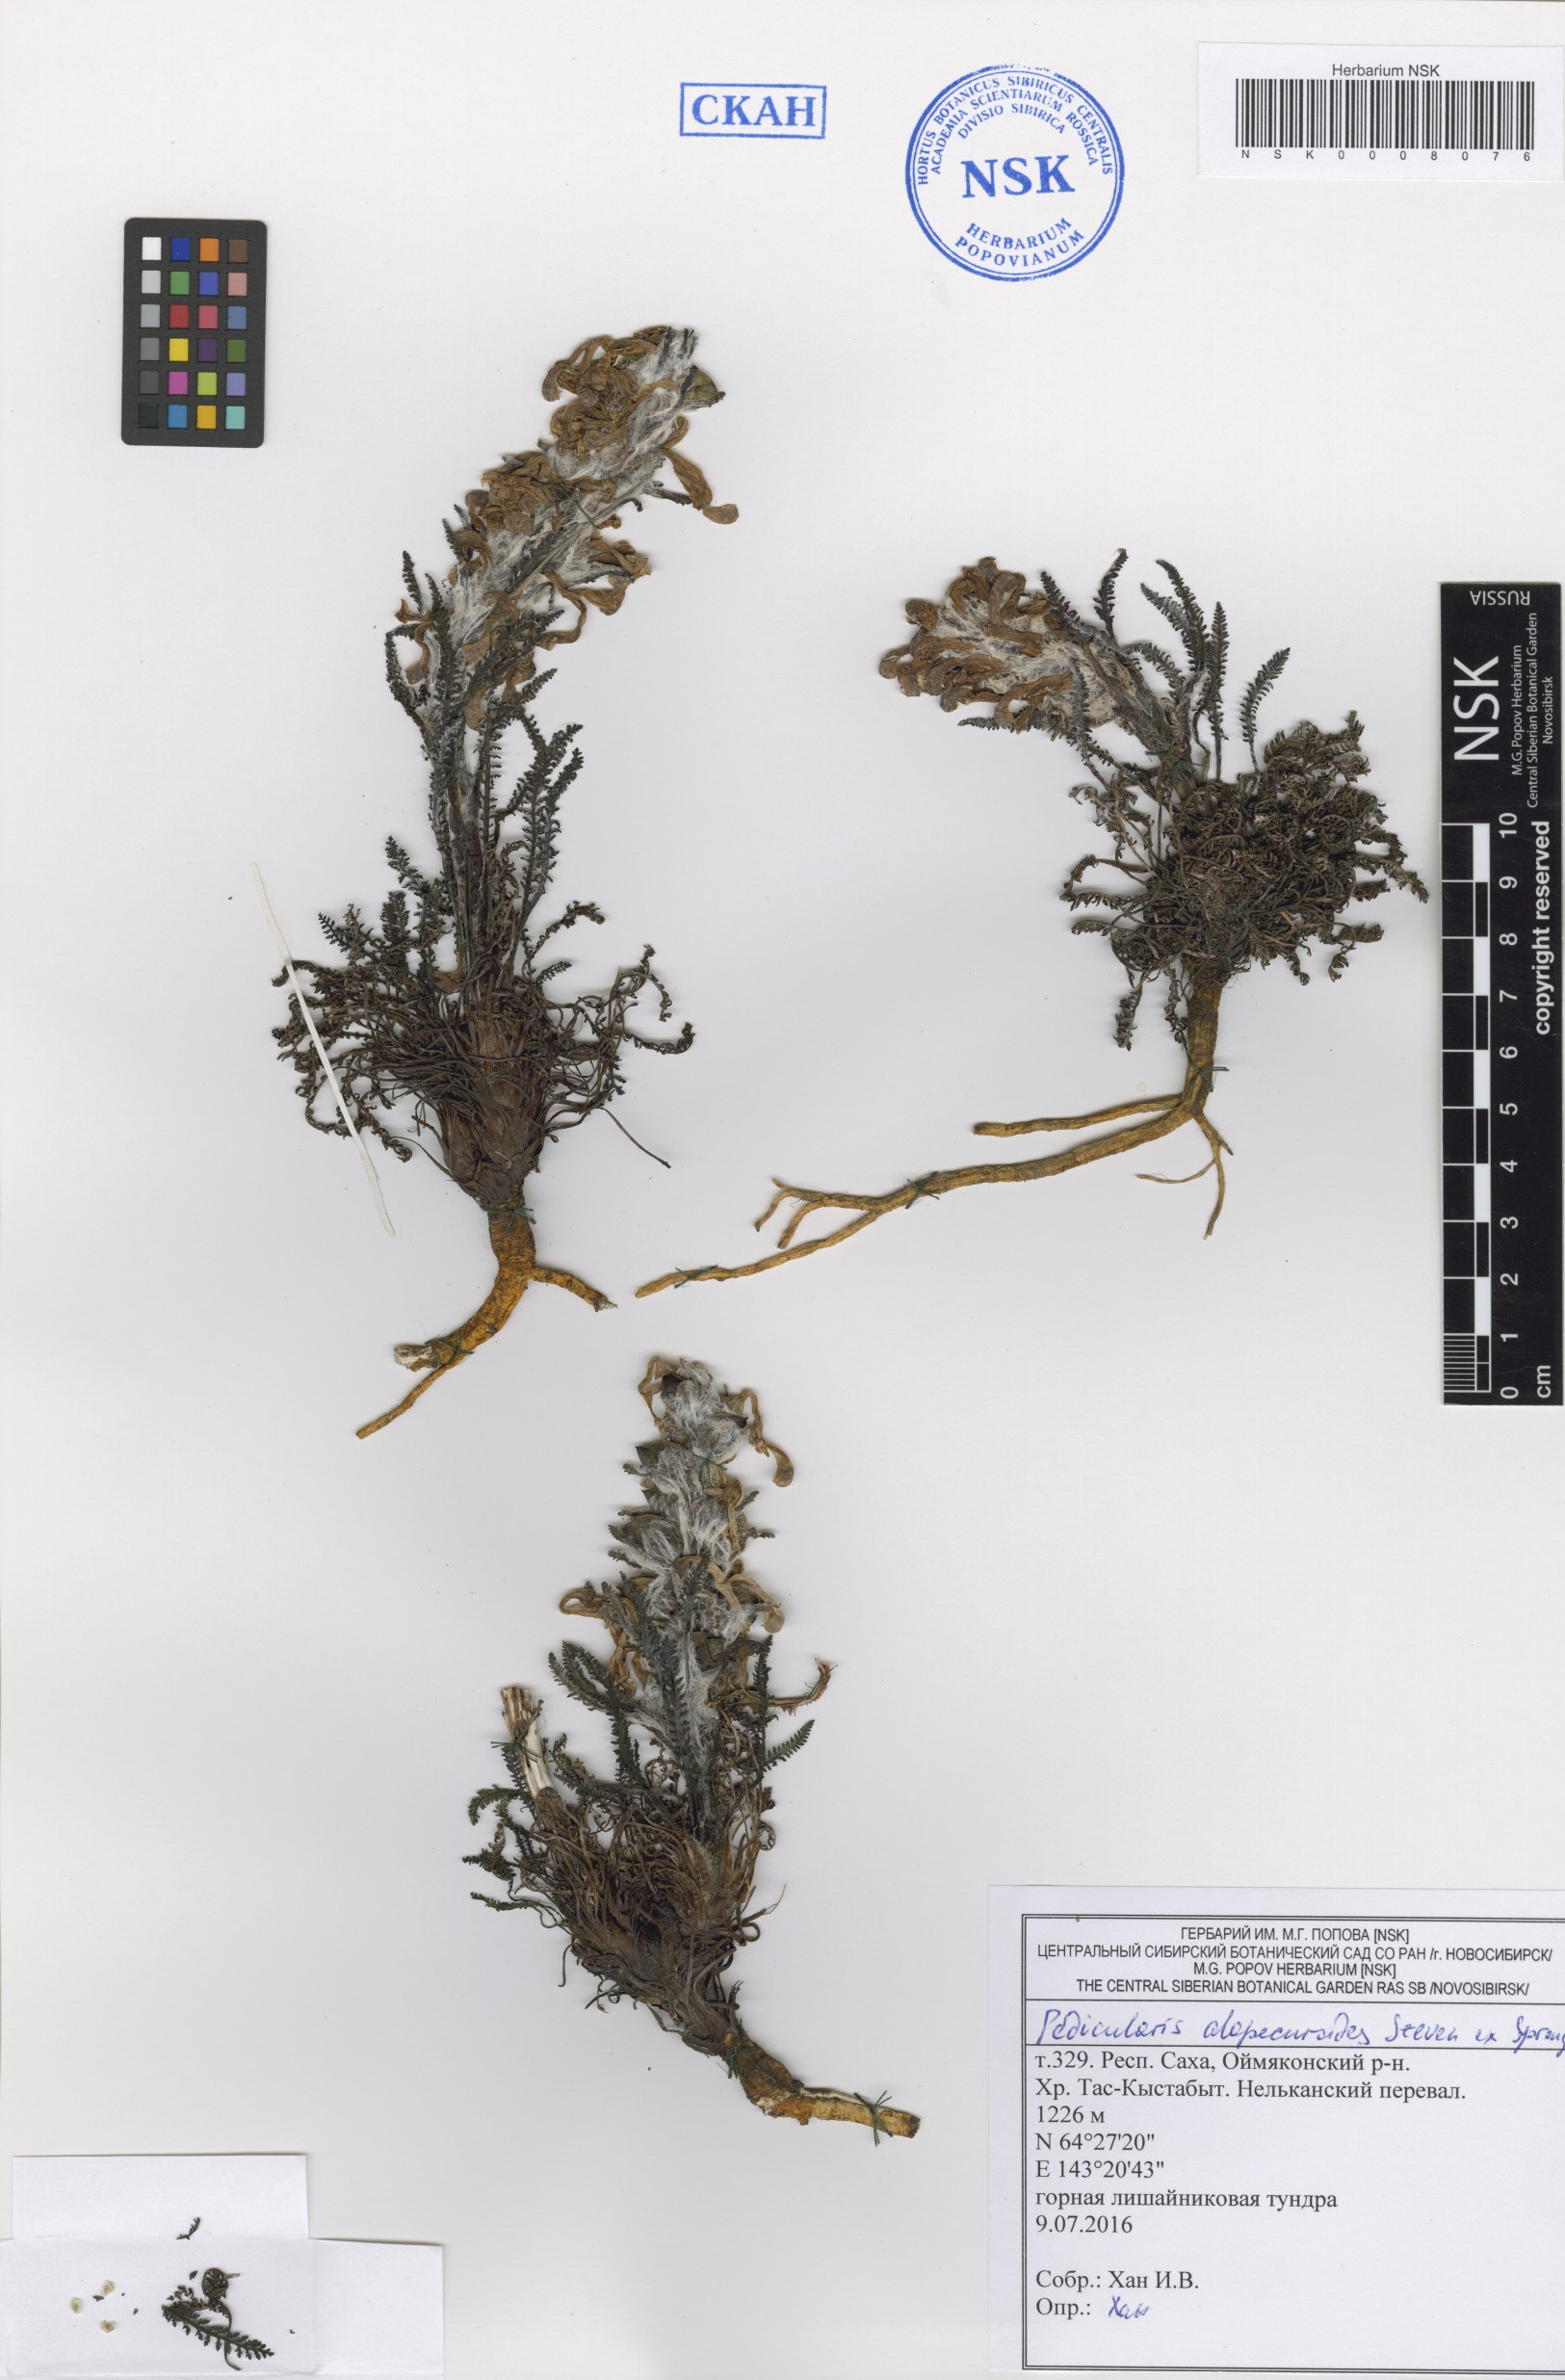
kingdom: Plantae
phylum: Tracheophyta
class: Magnoliopsida
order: Lamiales
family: Orobanchaceae
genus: Pedicularis
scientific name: Pedicularis alopecuroides
